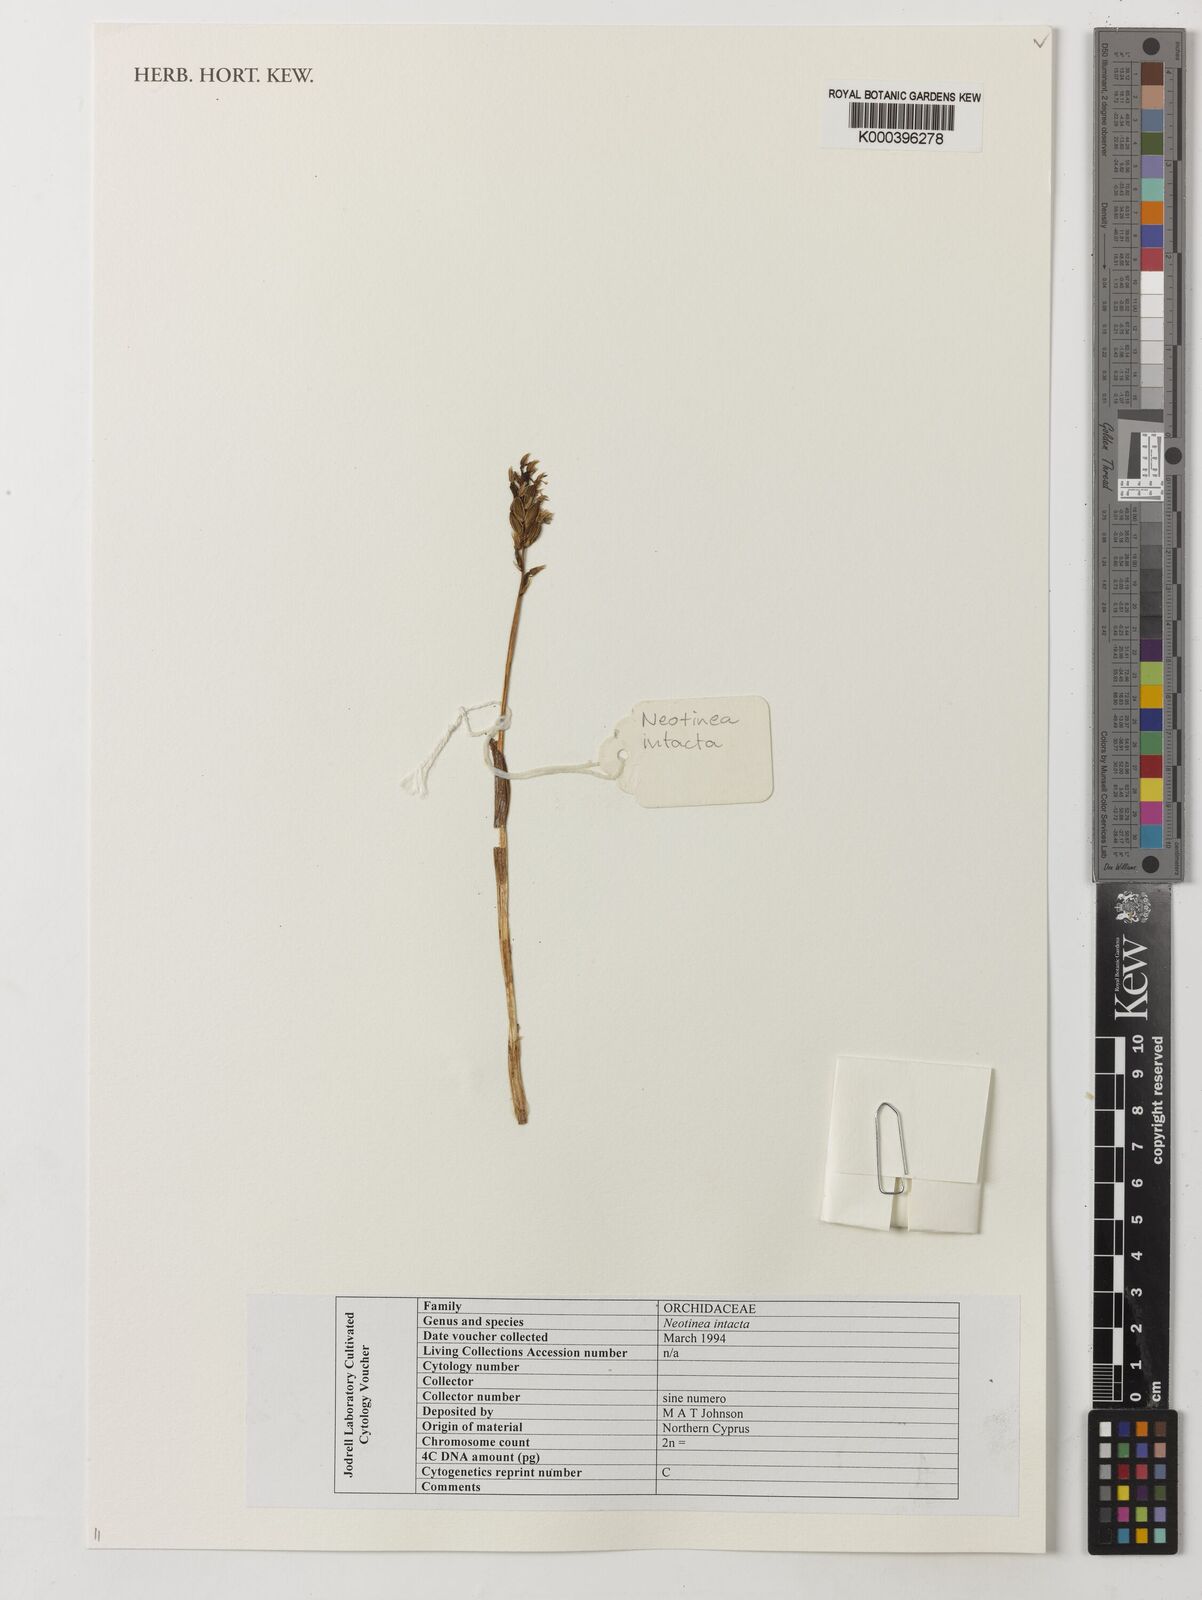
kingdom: Plantae
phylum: Tracheophyta
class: Liliopsida
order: Asparagales
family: Orchidaceae
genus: Neotinea
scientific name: Neotinea maculata
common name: Dense-flowered orchid
